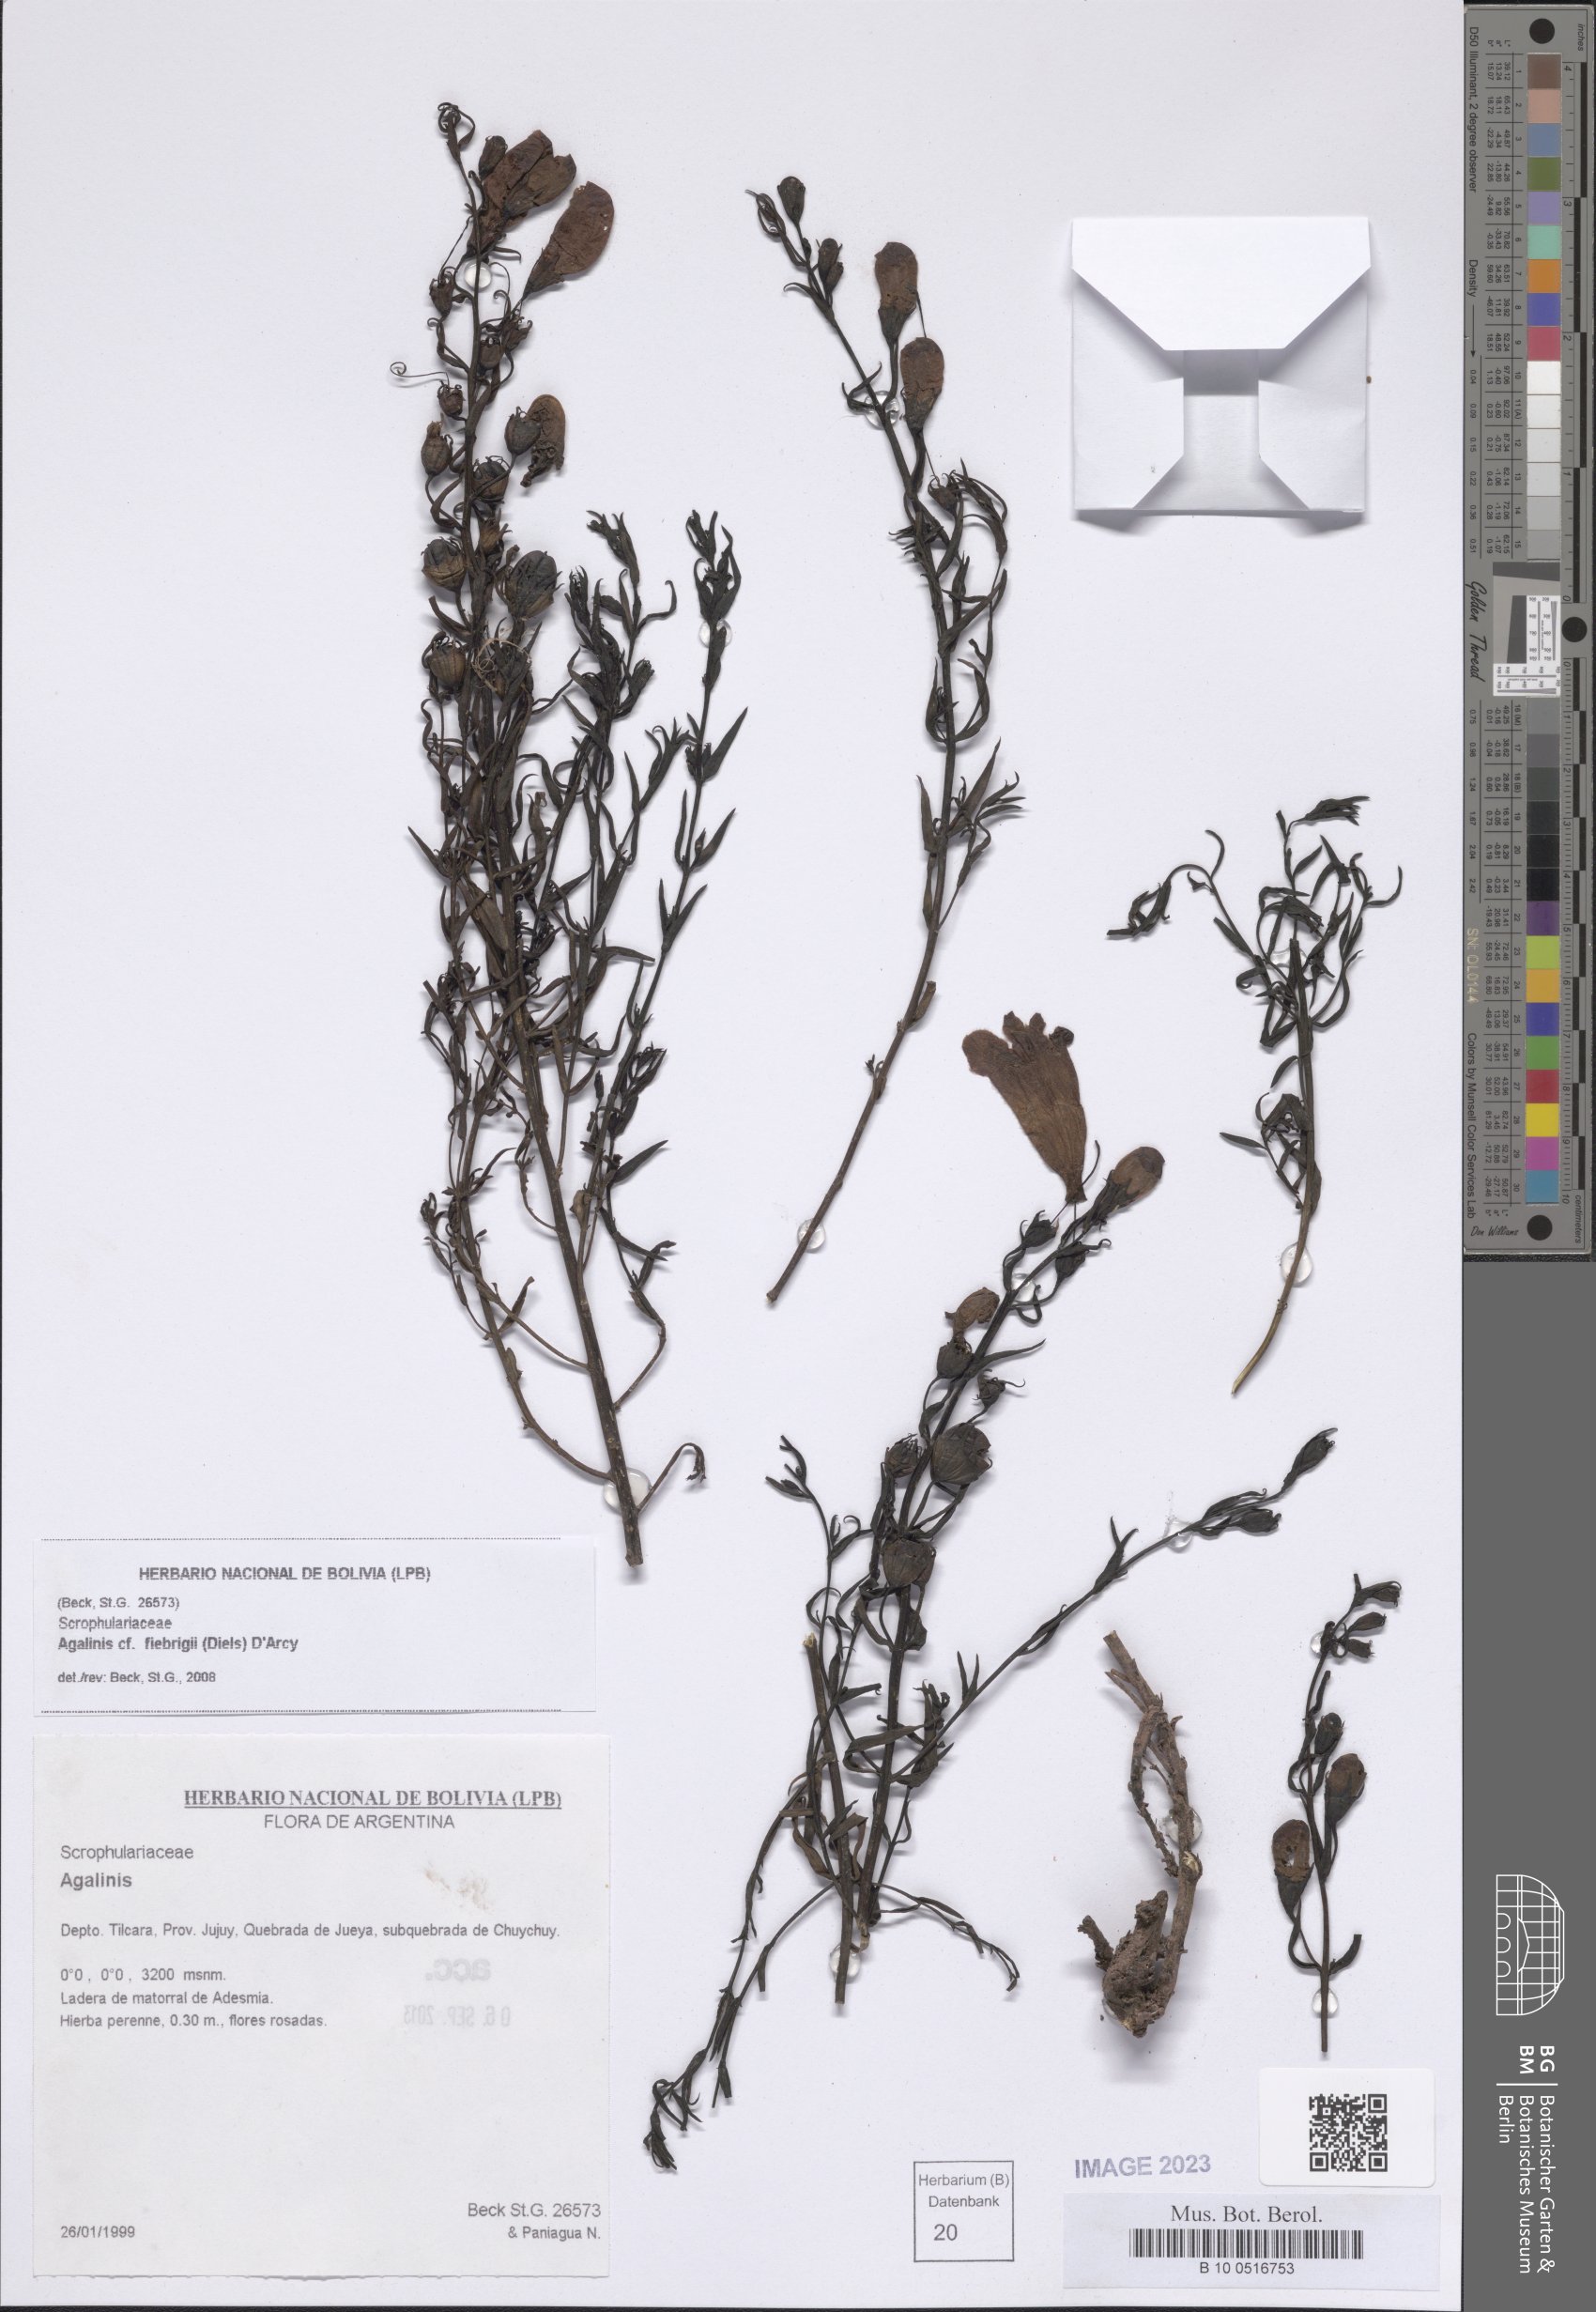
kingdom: Plantae
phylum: Tracheophyta
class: Magnoliopsida
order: Lamiales
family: Orobanchaceae
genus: Agalinis
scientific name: Agalinis fiebrigii
